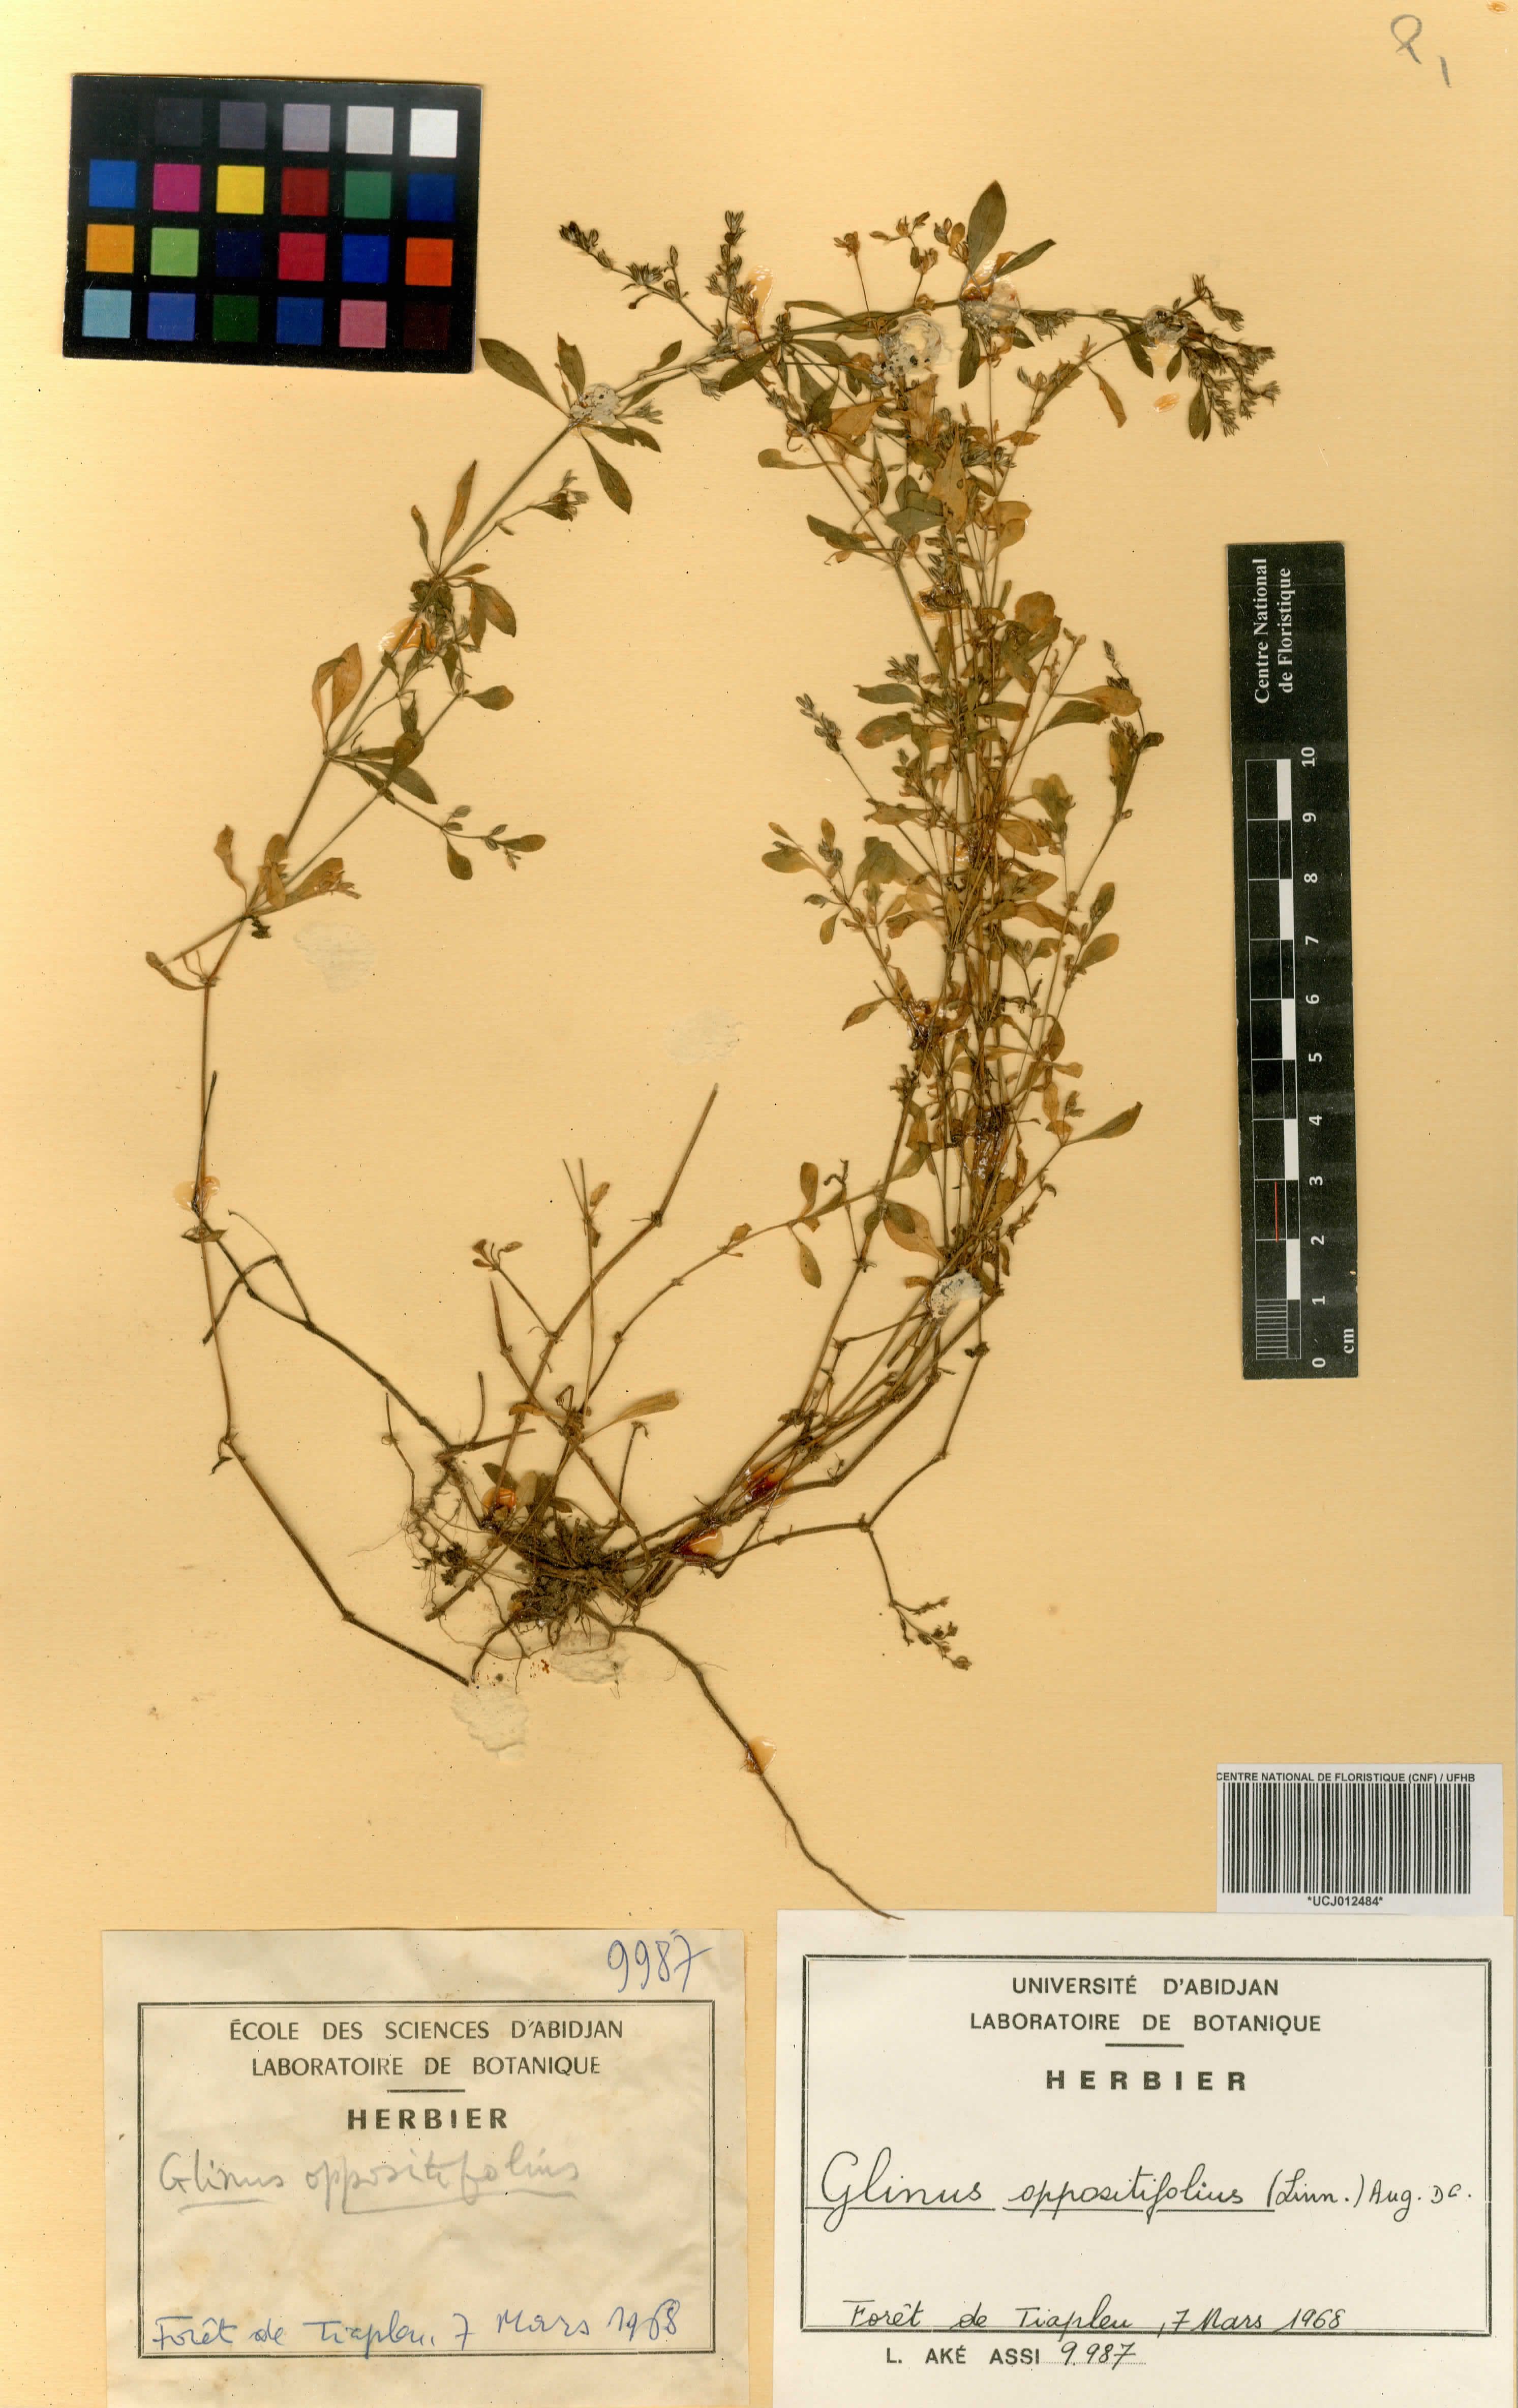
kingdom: Plantae
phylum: Tracheophyta
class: Magnoliopsida
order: Caryophyllales
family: Molluginaceae
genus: Glinus
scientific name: Glinus oppositifolius
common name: Slender carpetweed
